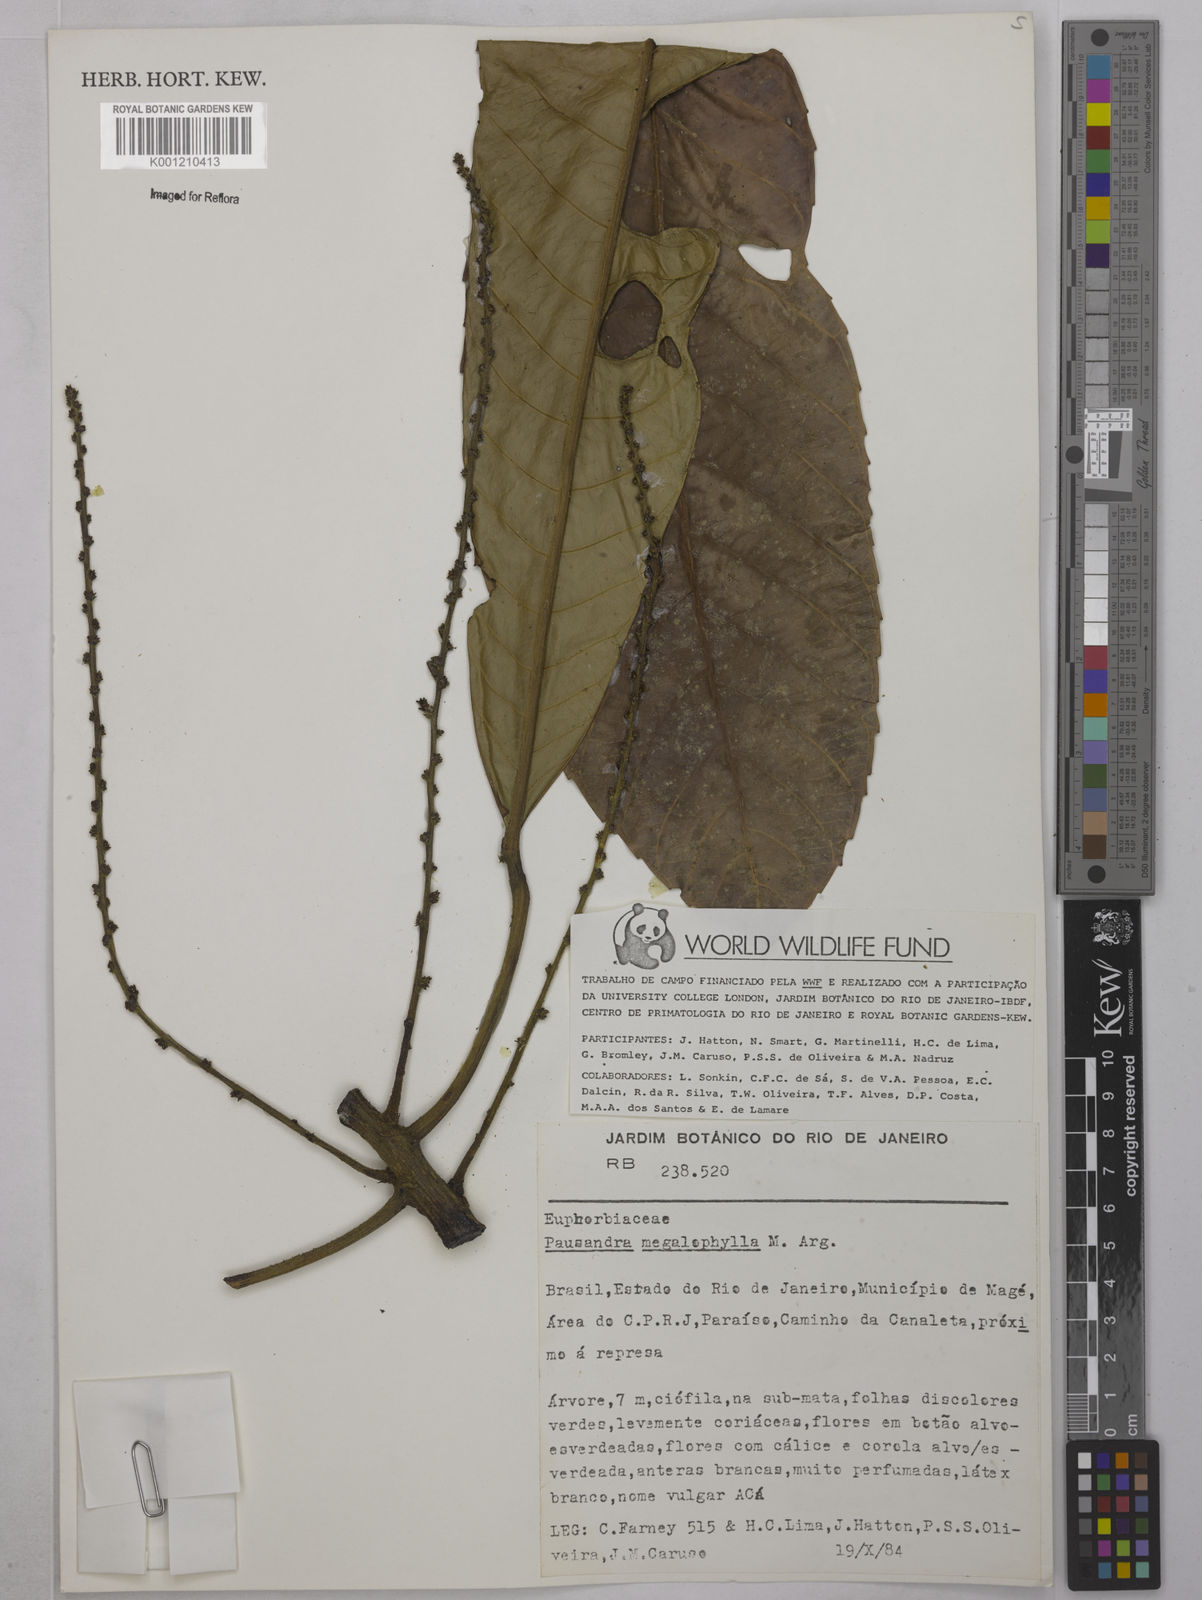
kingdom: Plantae
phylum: Tracheophyta
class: Magnoliopsida
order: Malpighiales
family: Euphorbiaceae
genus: Pausandra
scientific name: Pausandra
